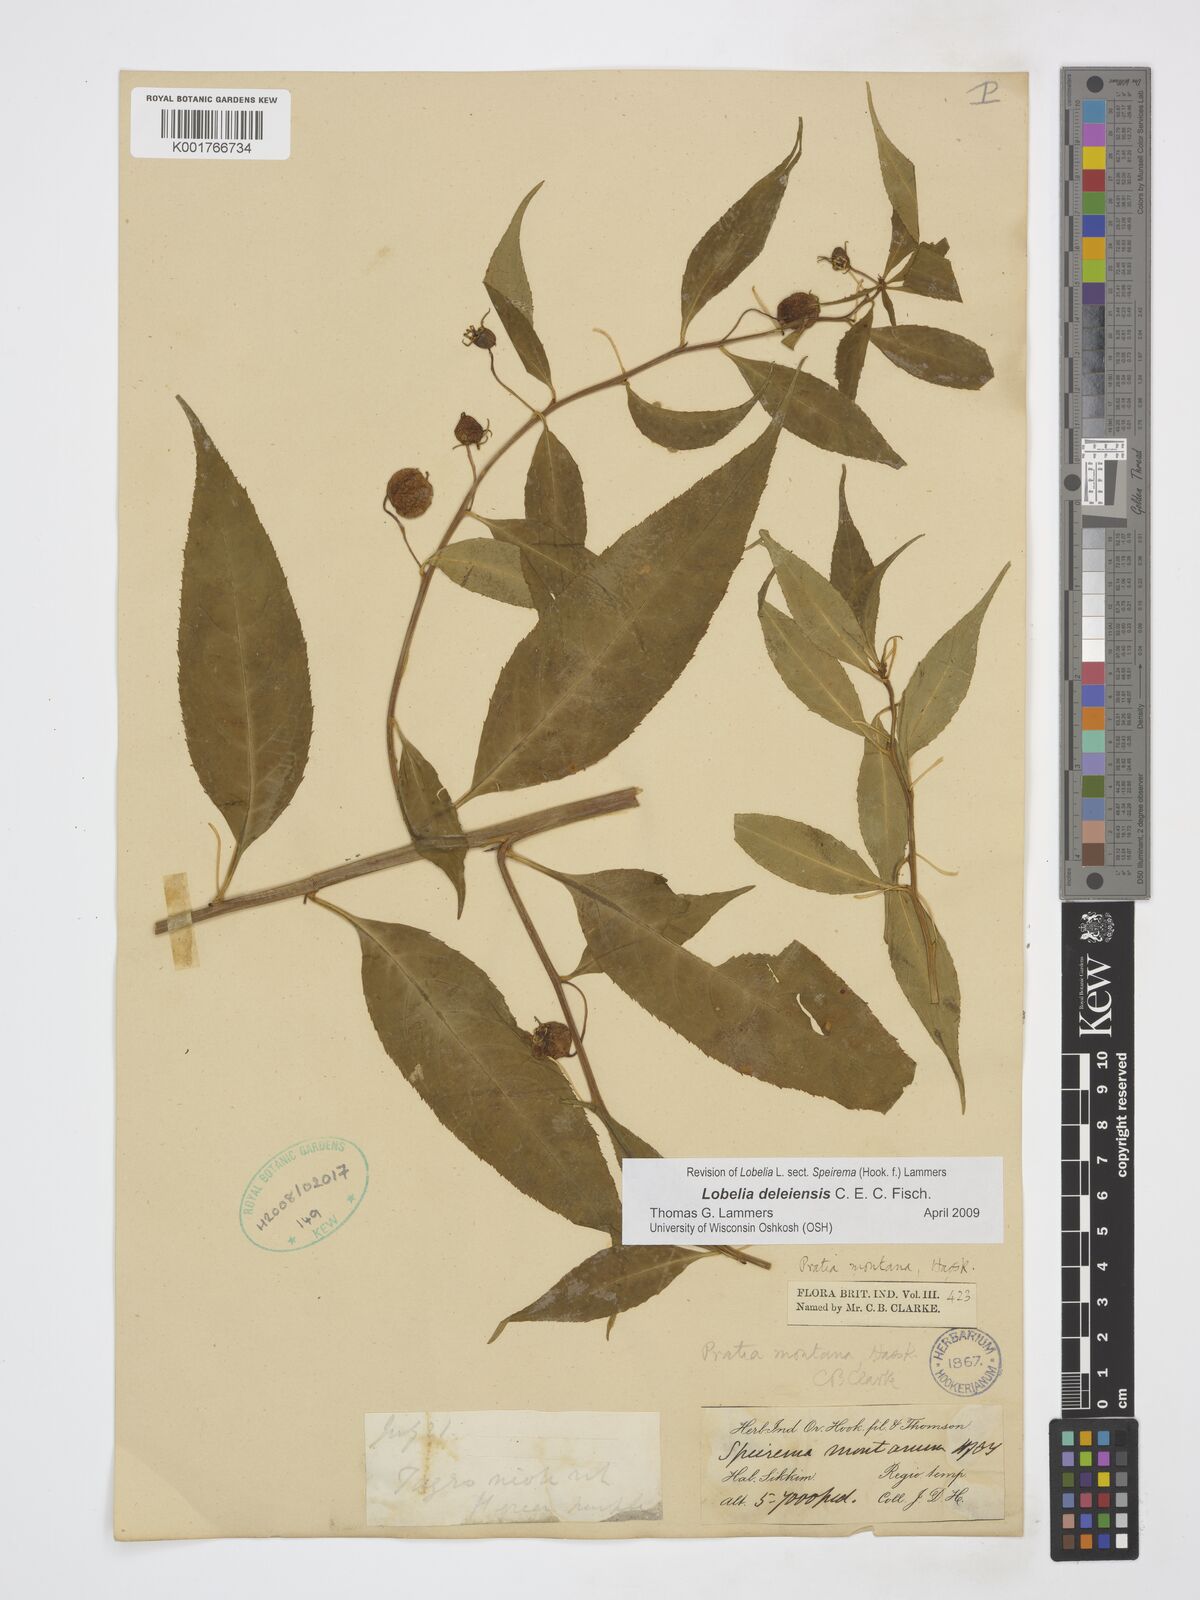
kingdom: Plantae
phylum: Tracheophyta
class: Magnoliopsida
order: Asterales
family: Campanulaceae
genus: Lobelia
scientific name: Lobelia deleiensis
